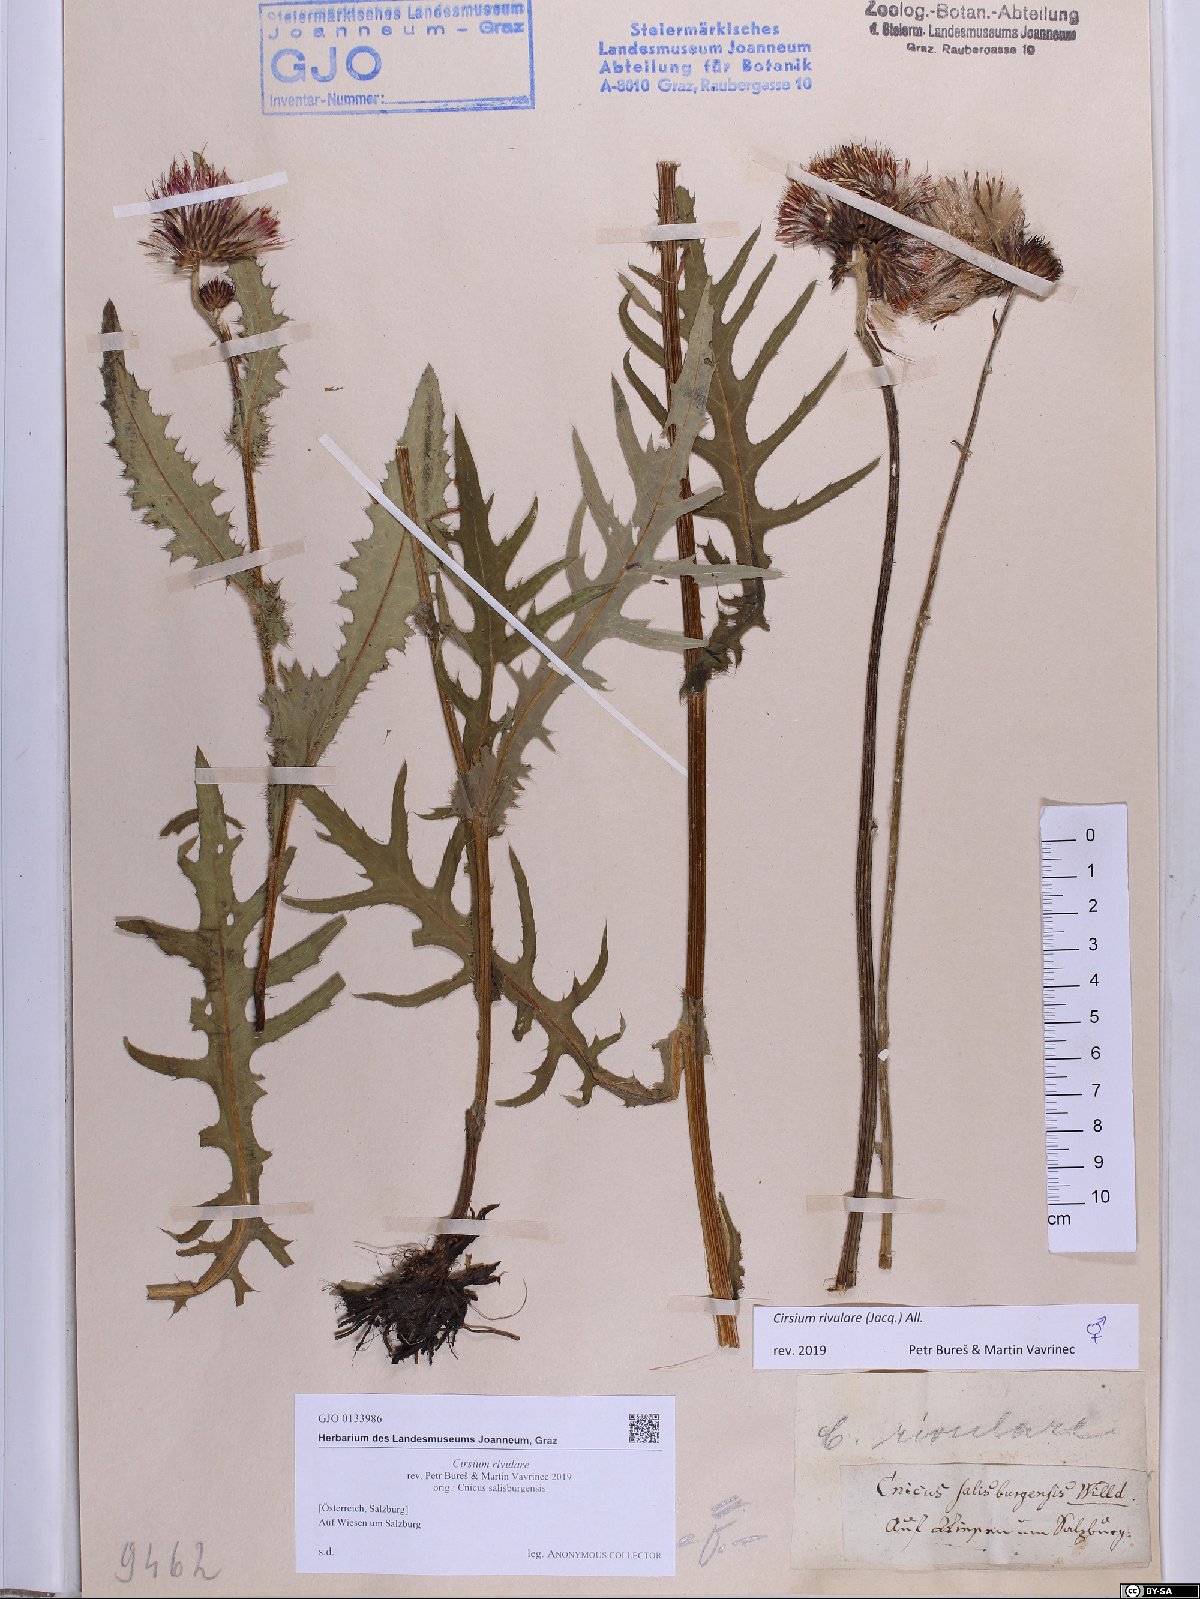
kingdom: Plantae
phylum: Tracheophyta
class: Magnoliopsida
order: Asterales
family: Asteraceae
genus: Cirsium
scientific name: Cirsium rivulare
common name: Brook thistle
